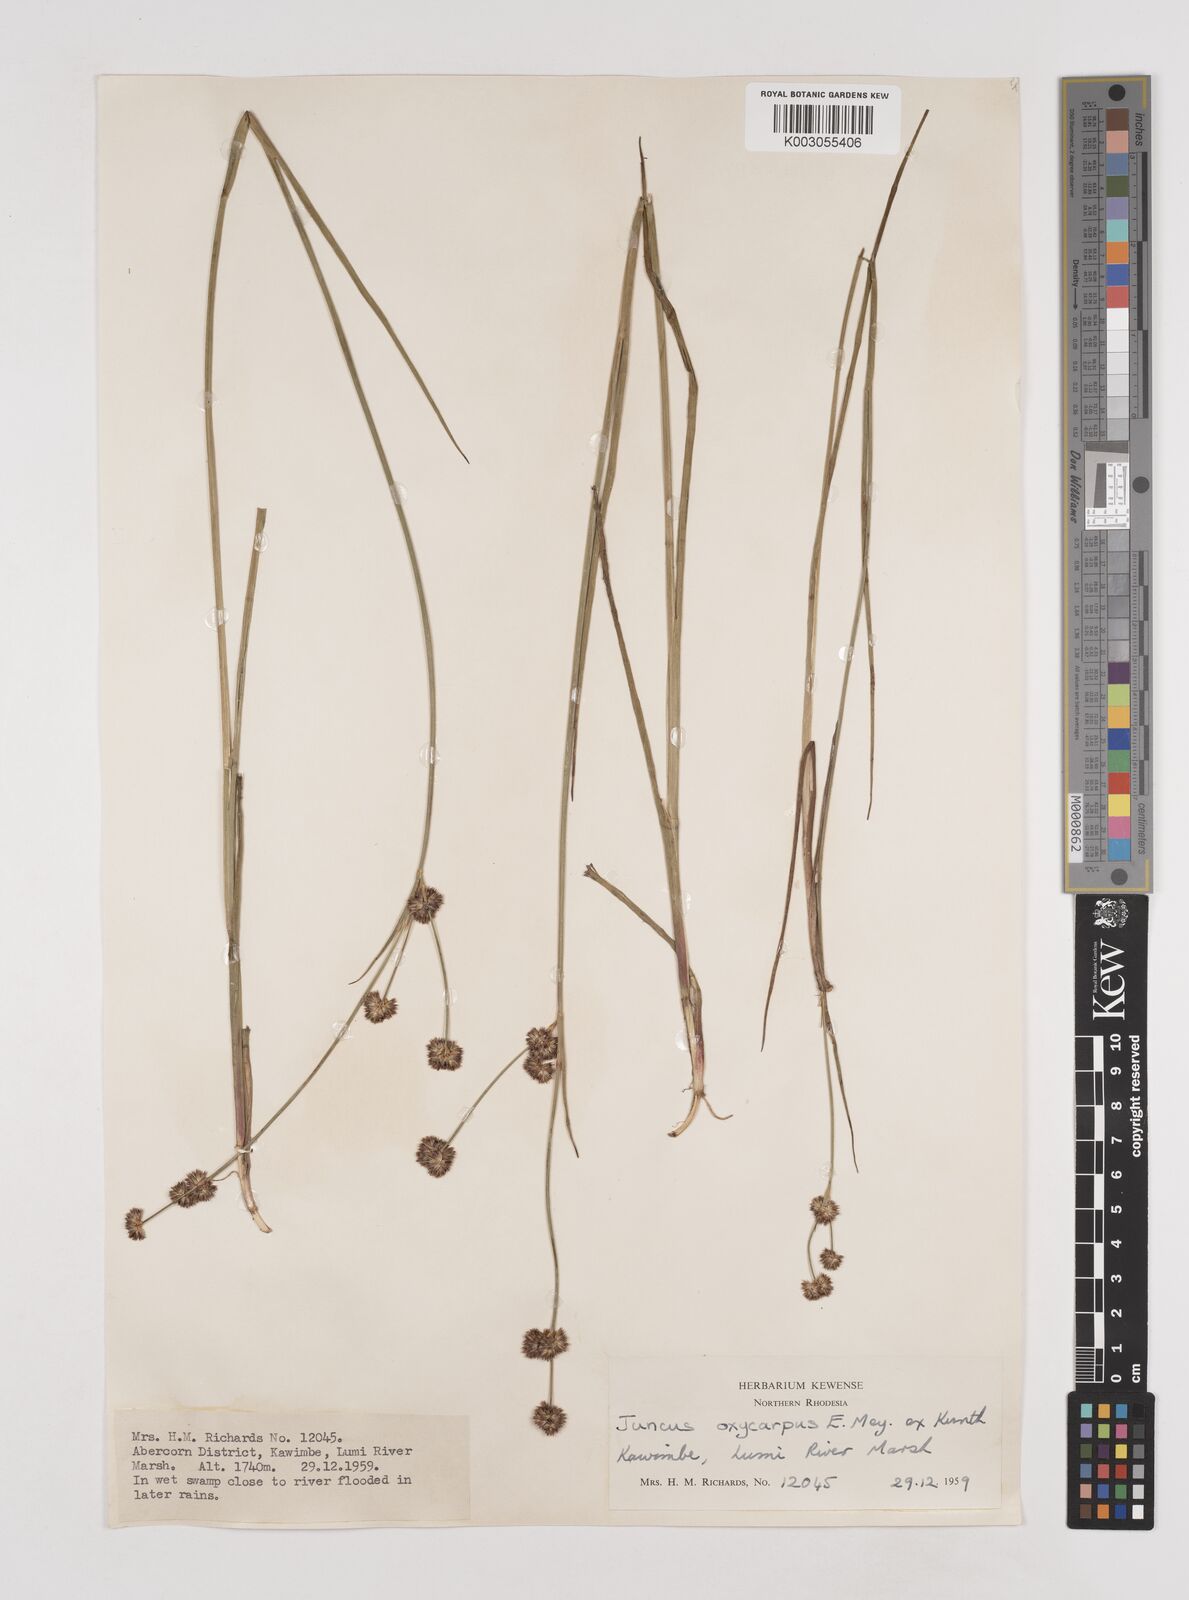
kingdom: Plantae
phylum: Tracheophyta
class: Liliopsida
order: Poales
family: Juncaceae
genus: Juncus
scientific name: Juncus oxycarpus
